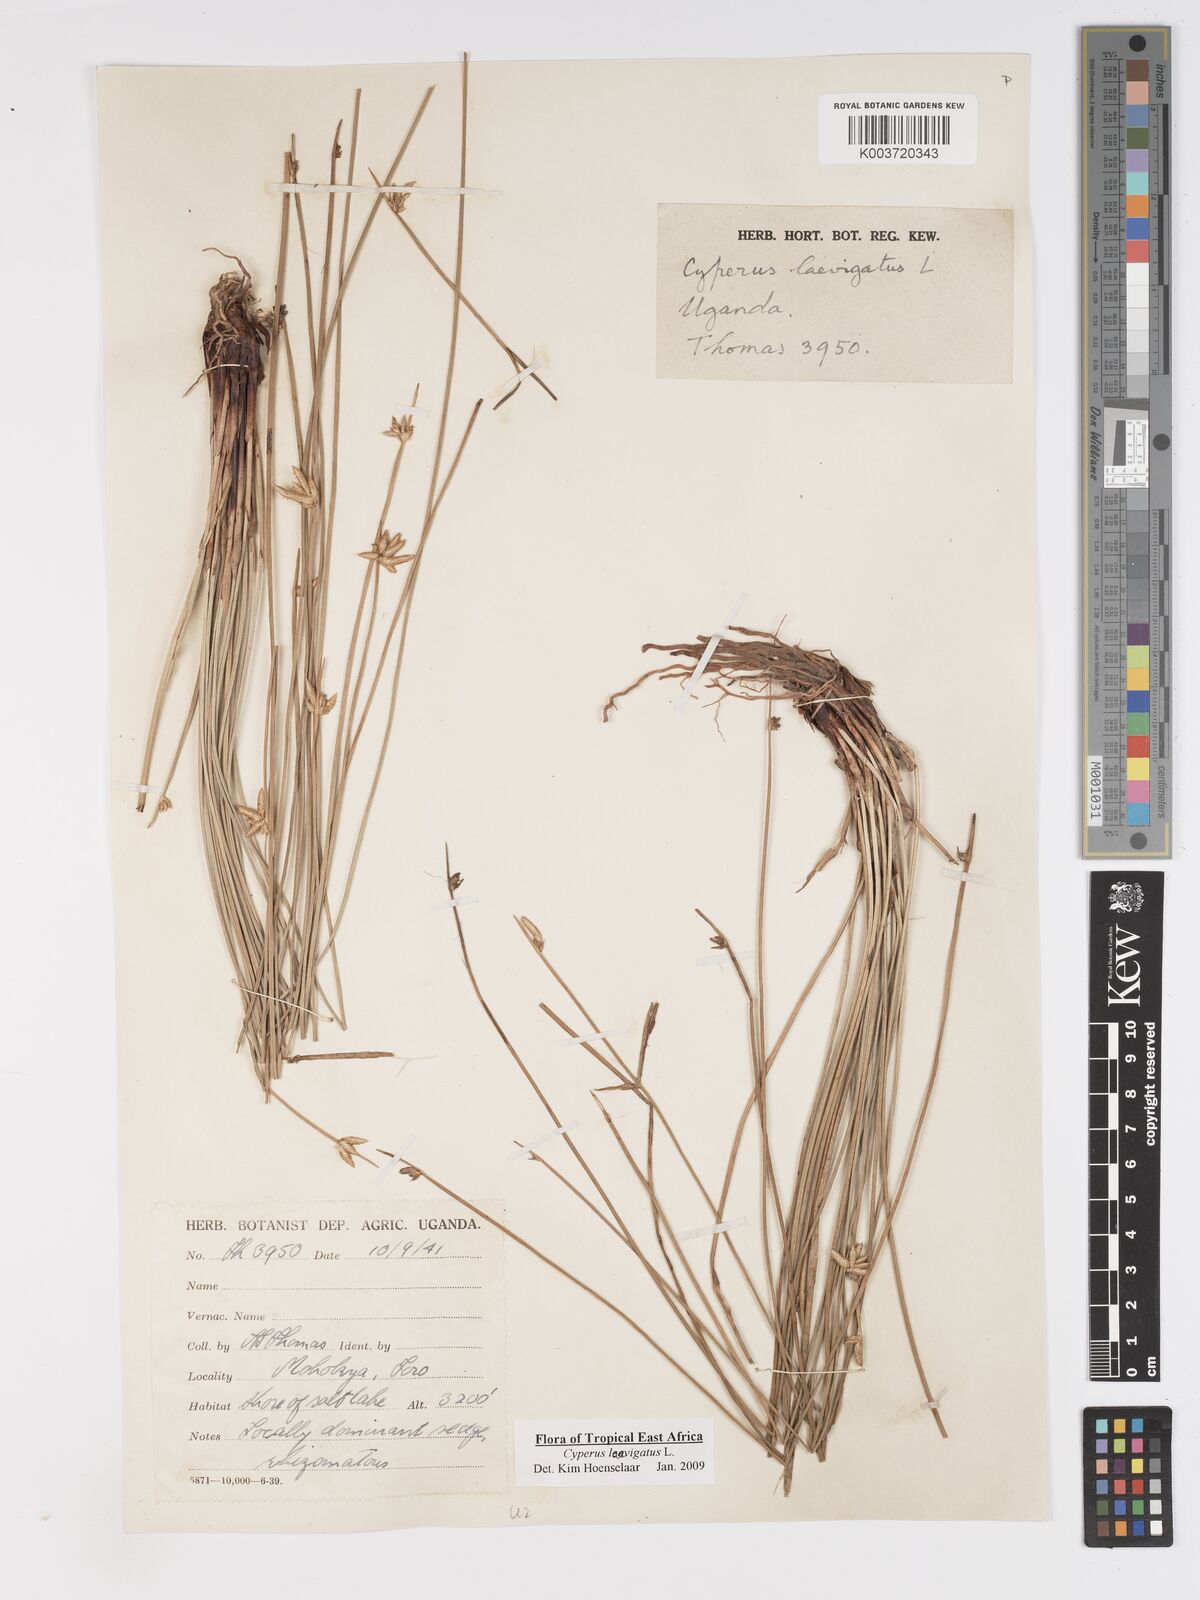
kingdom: Plantae
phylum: Tracheophyta
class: Liliopsida
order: Poales
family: Cyperaceae
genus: Cyperus
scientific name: Cyperus laevigatus
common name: Smooth flat sedge
